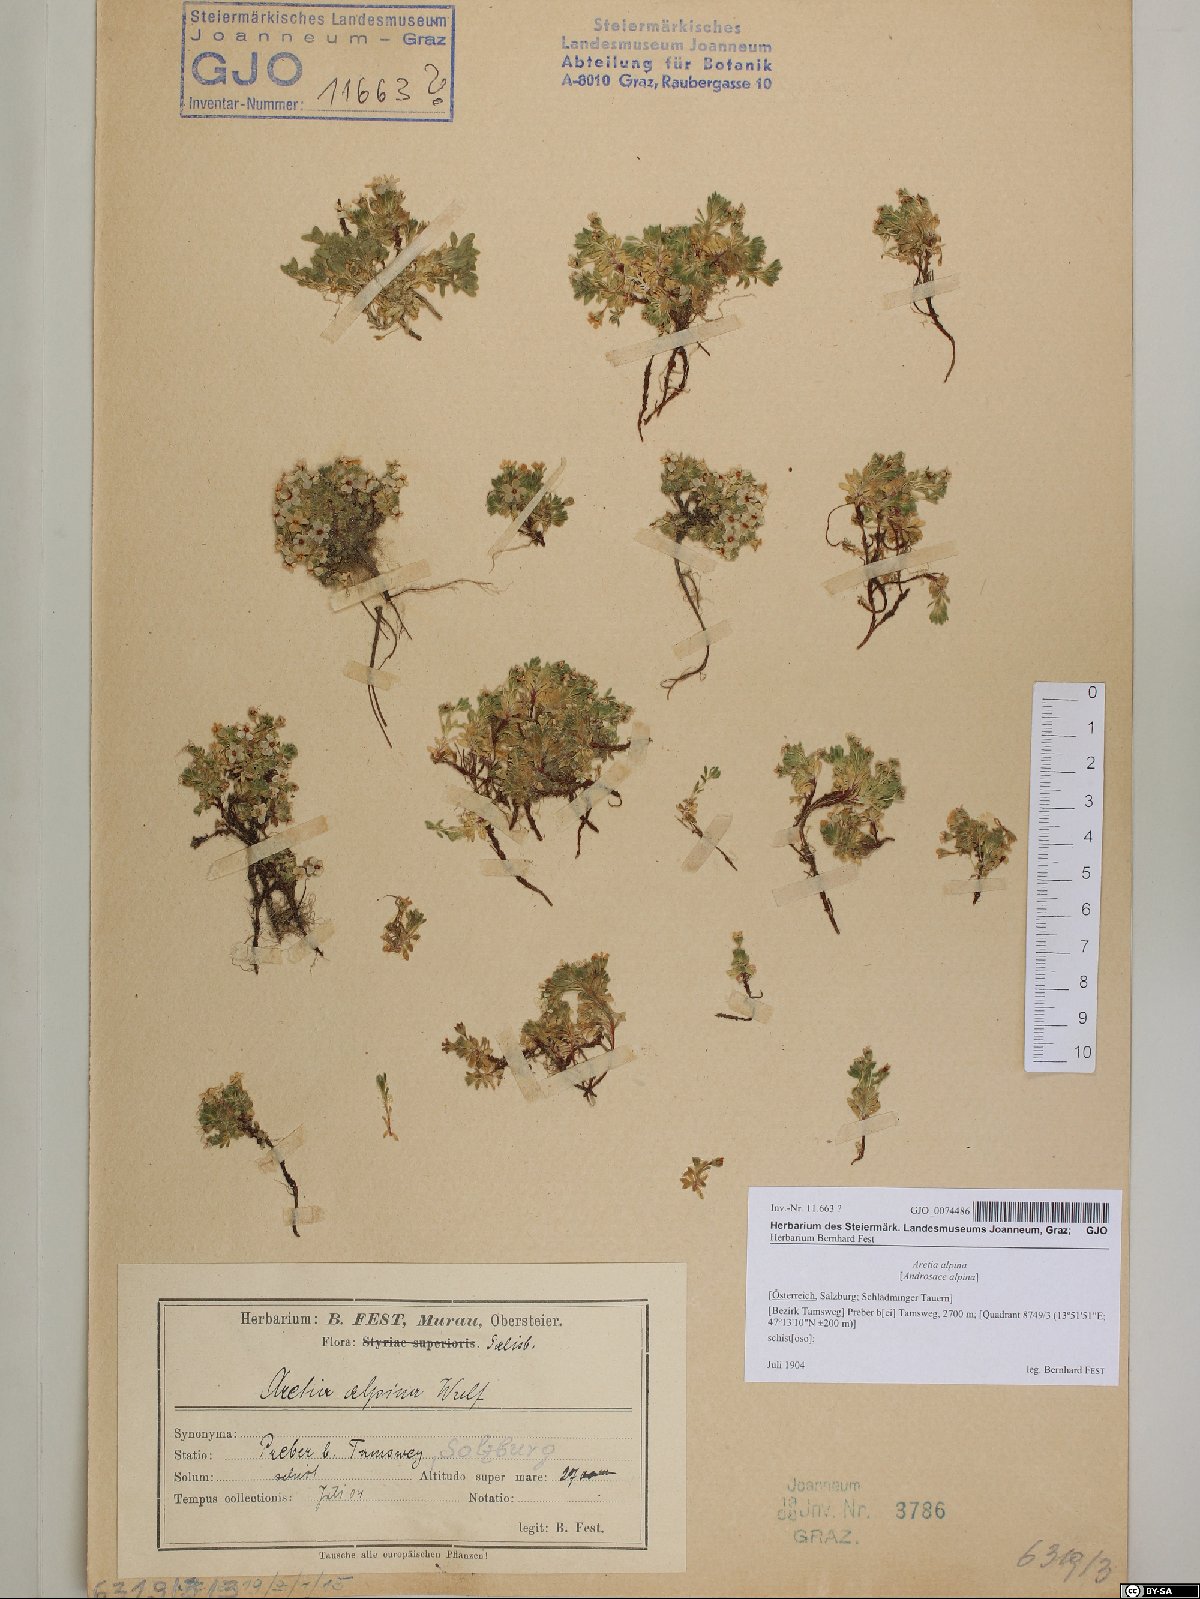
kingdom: Plantae
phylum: Tracheophyta
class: Magnoliopsida
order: Ericales
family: Primulaceae
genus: Androsace
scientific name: Androsace alpina
